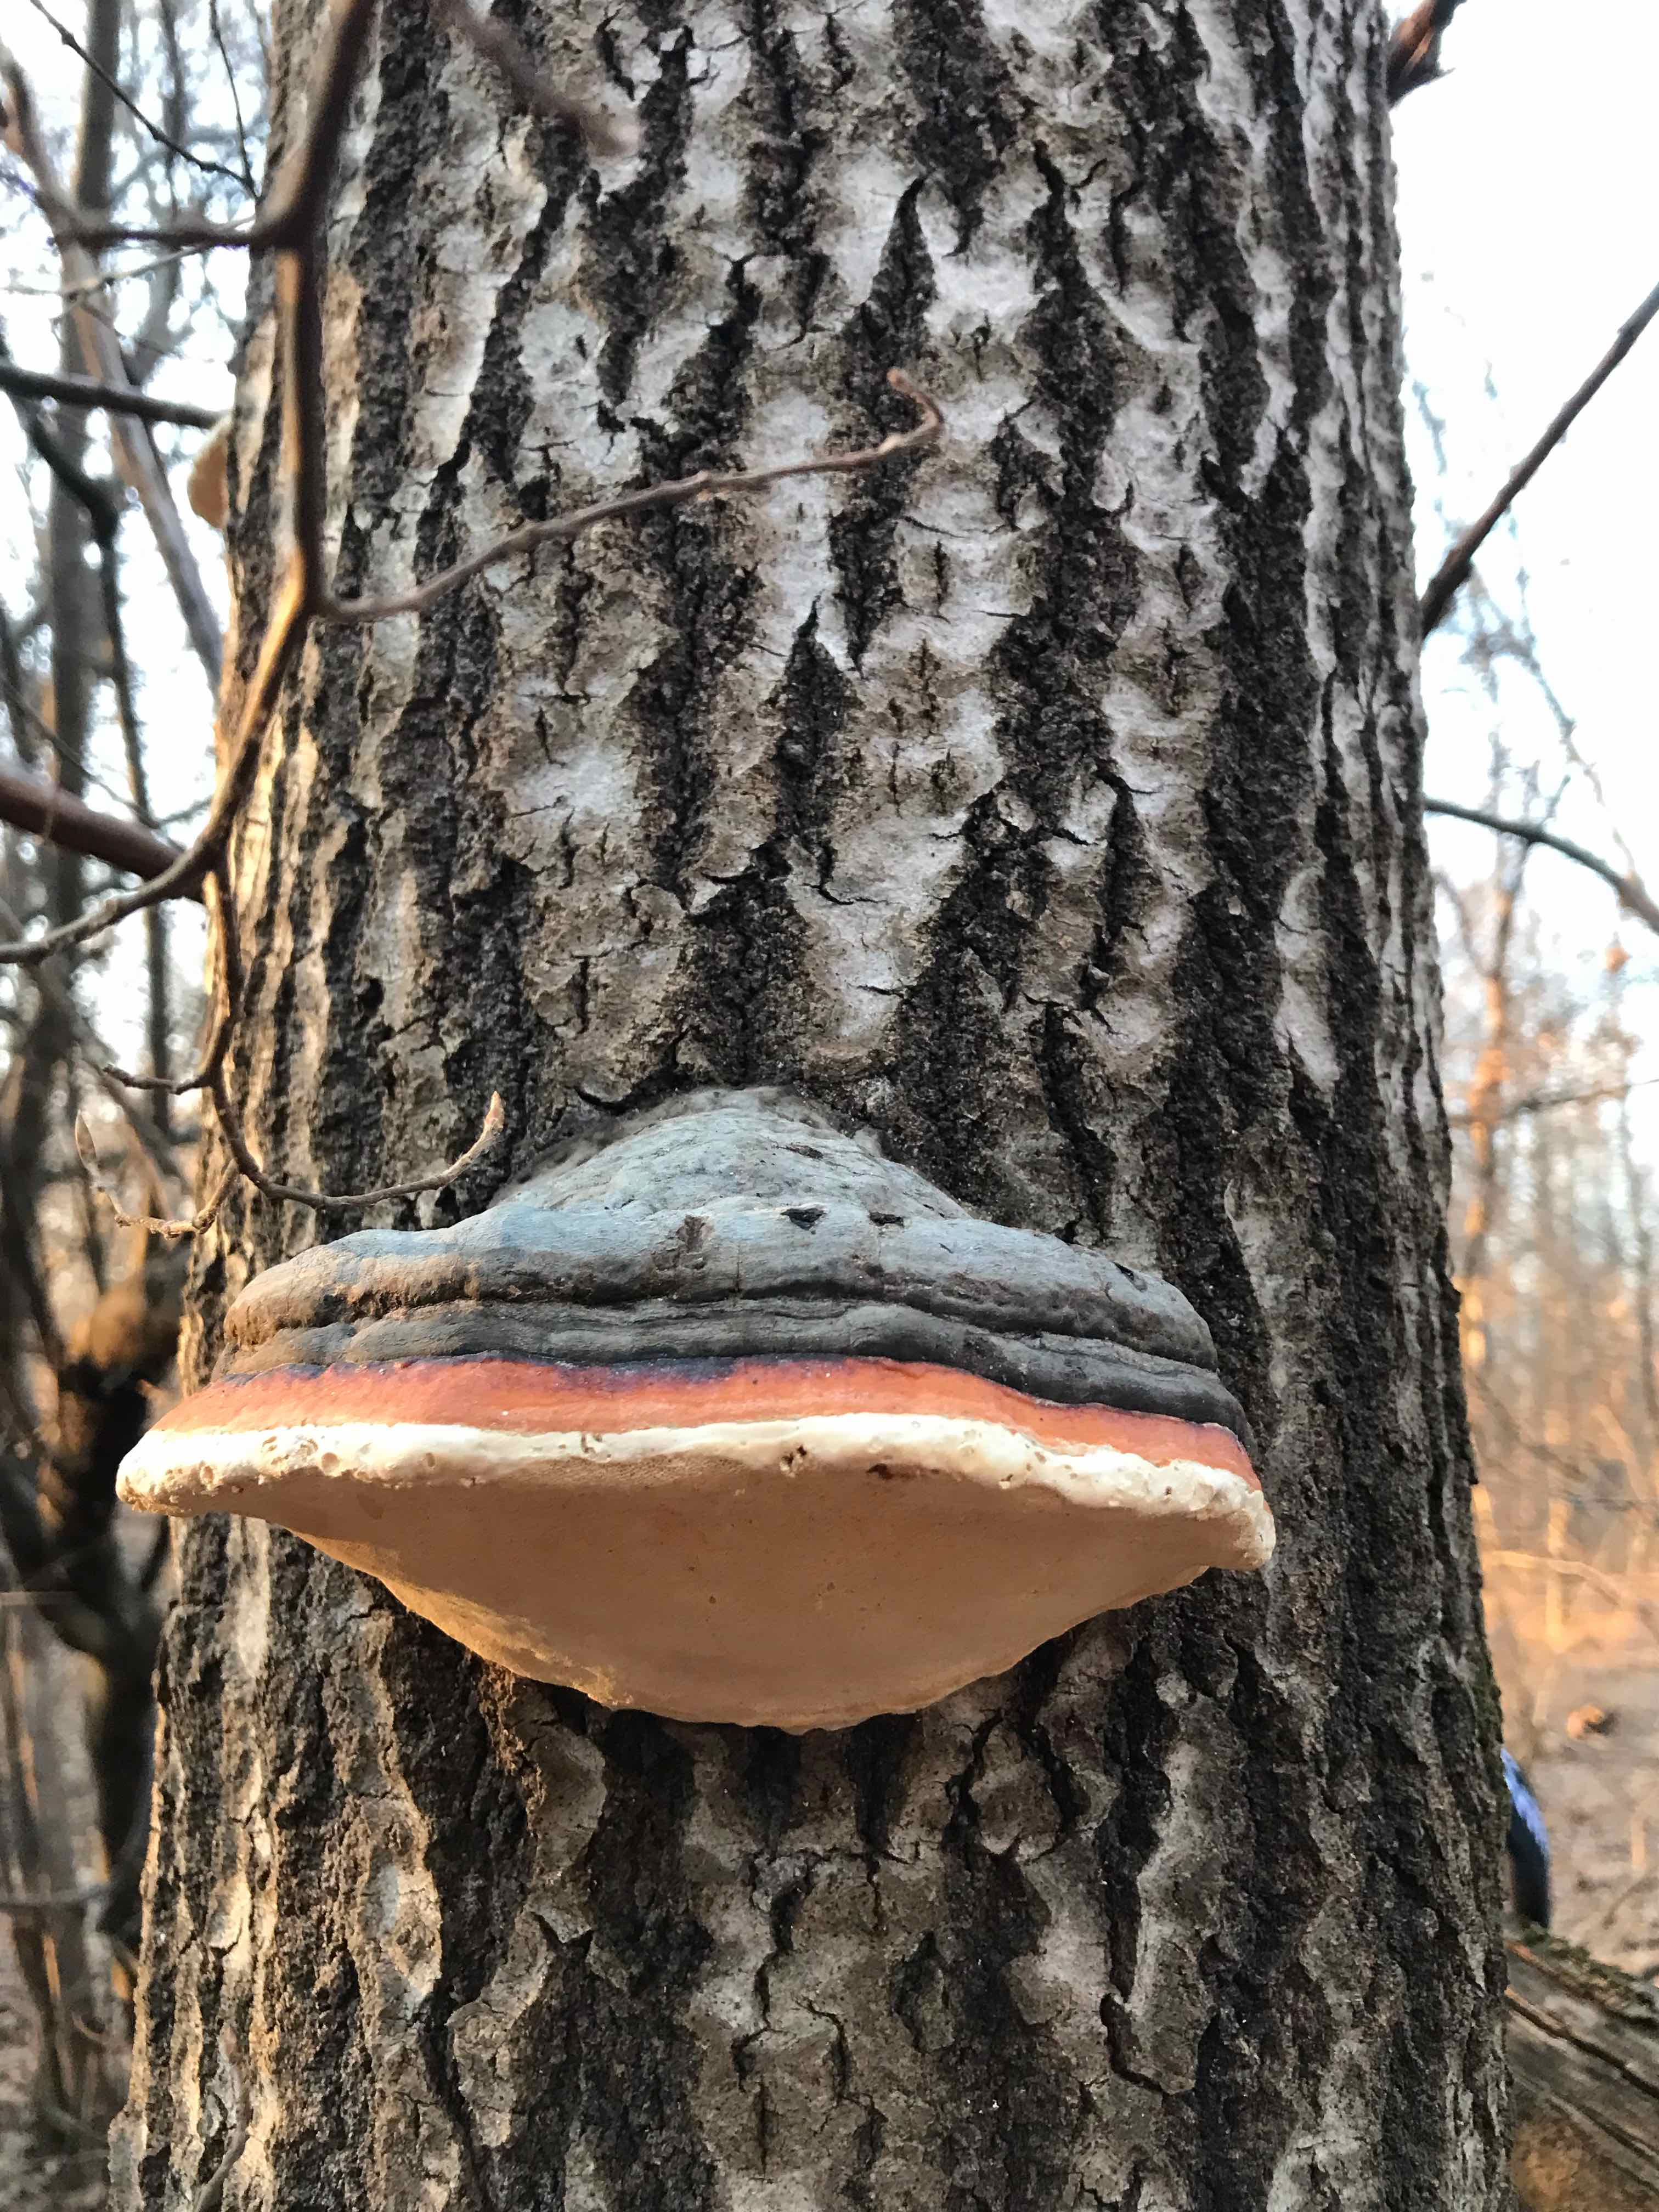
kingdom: Fungi
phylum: Basidiomycota
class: Agaricomycetes
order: Polyporales
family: Fomitopsidaceae
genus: Fomitopsis
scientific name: Fomitopsis pinicola
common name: randbæltet hovporesvamp
